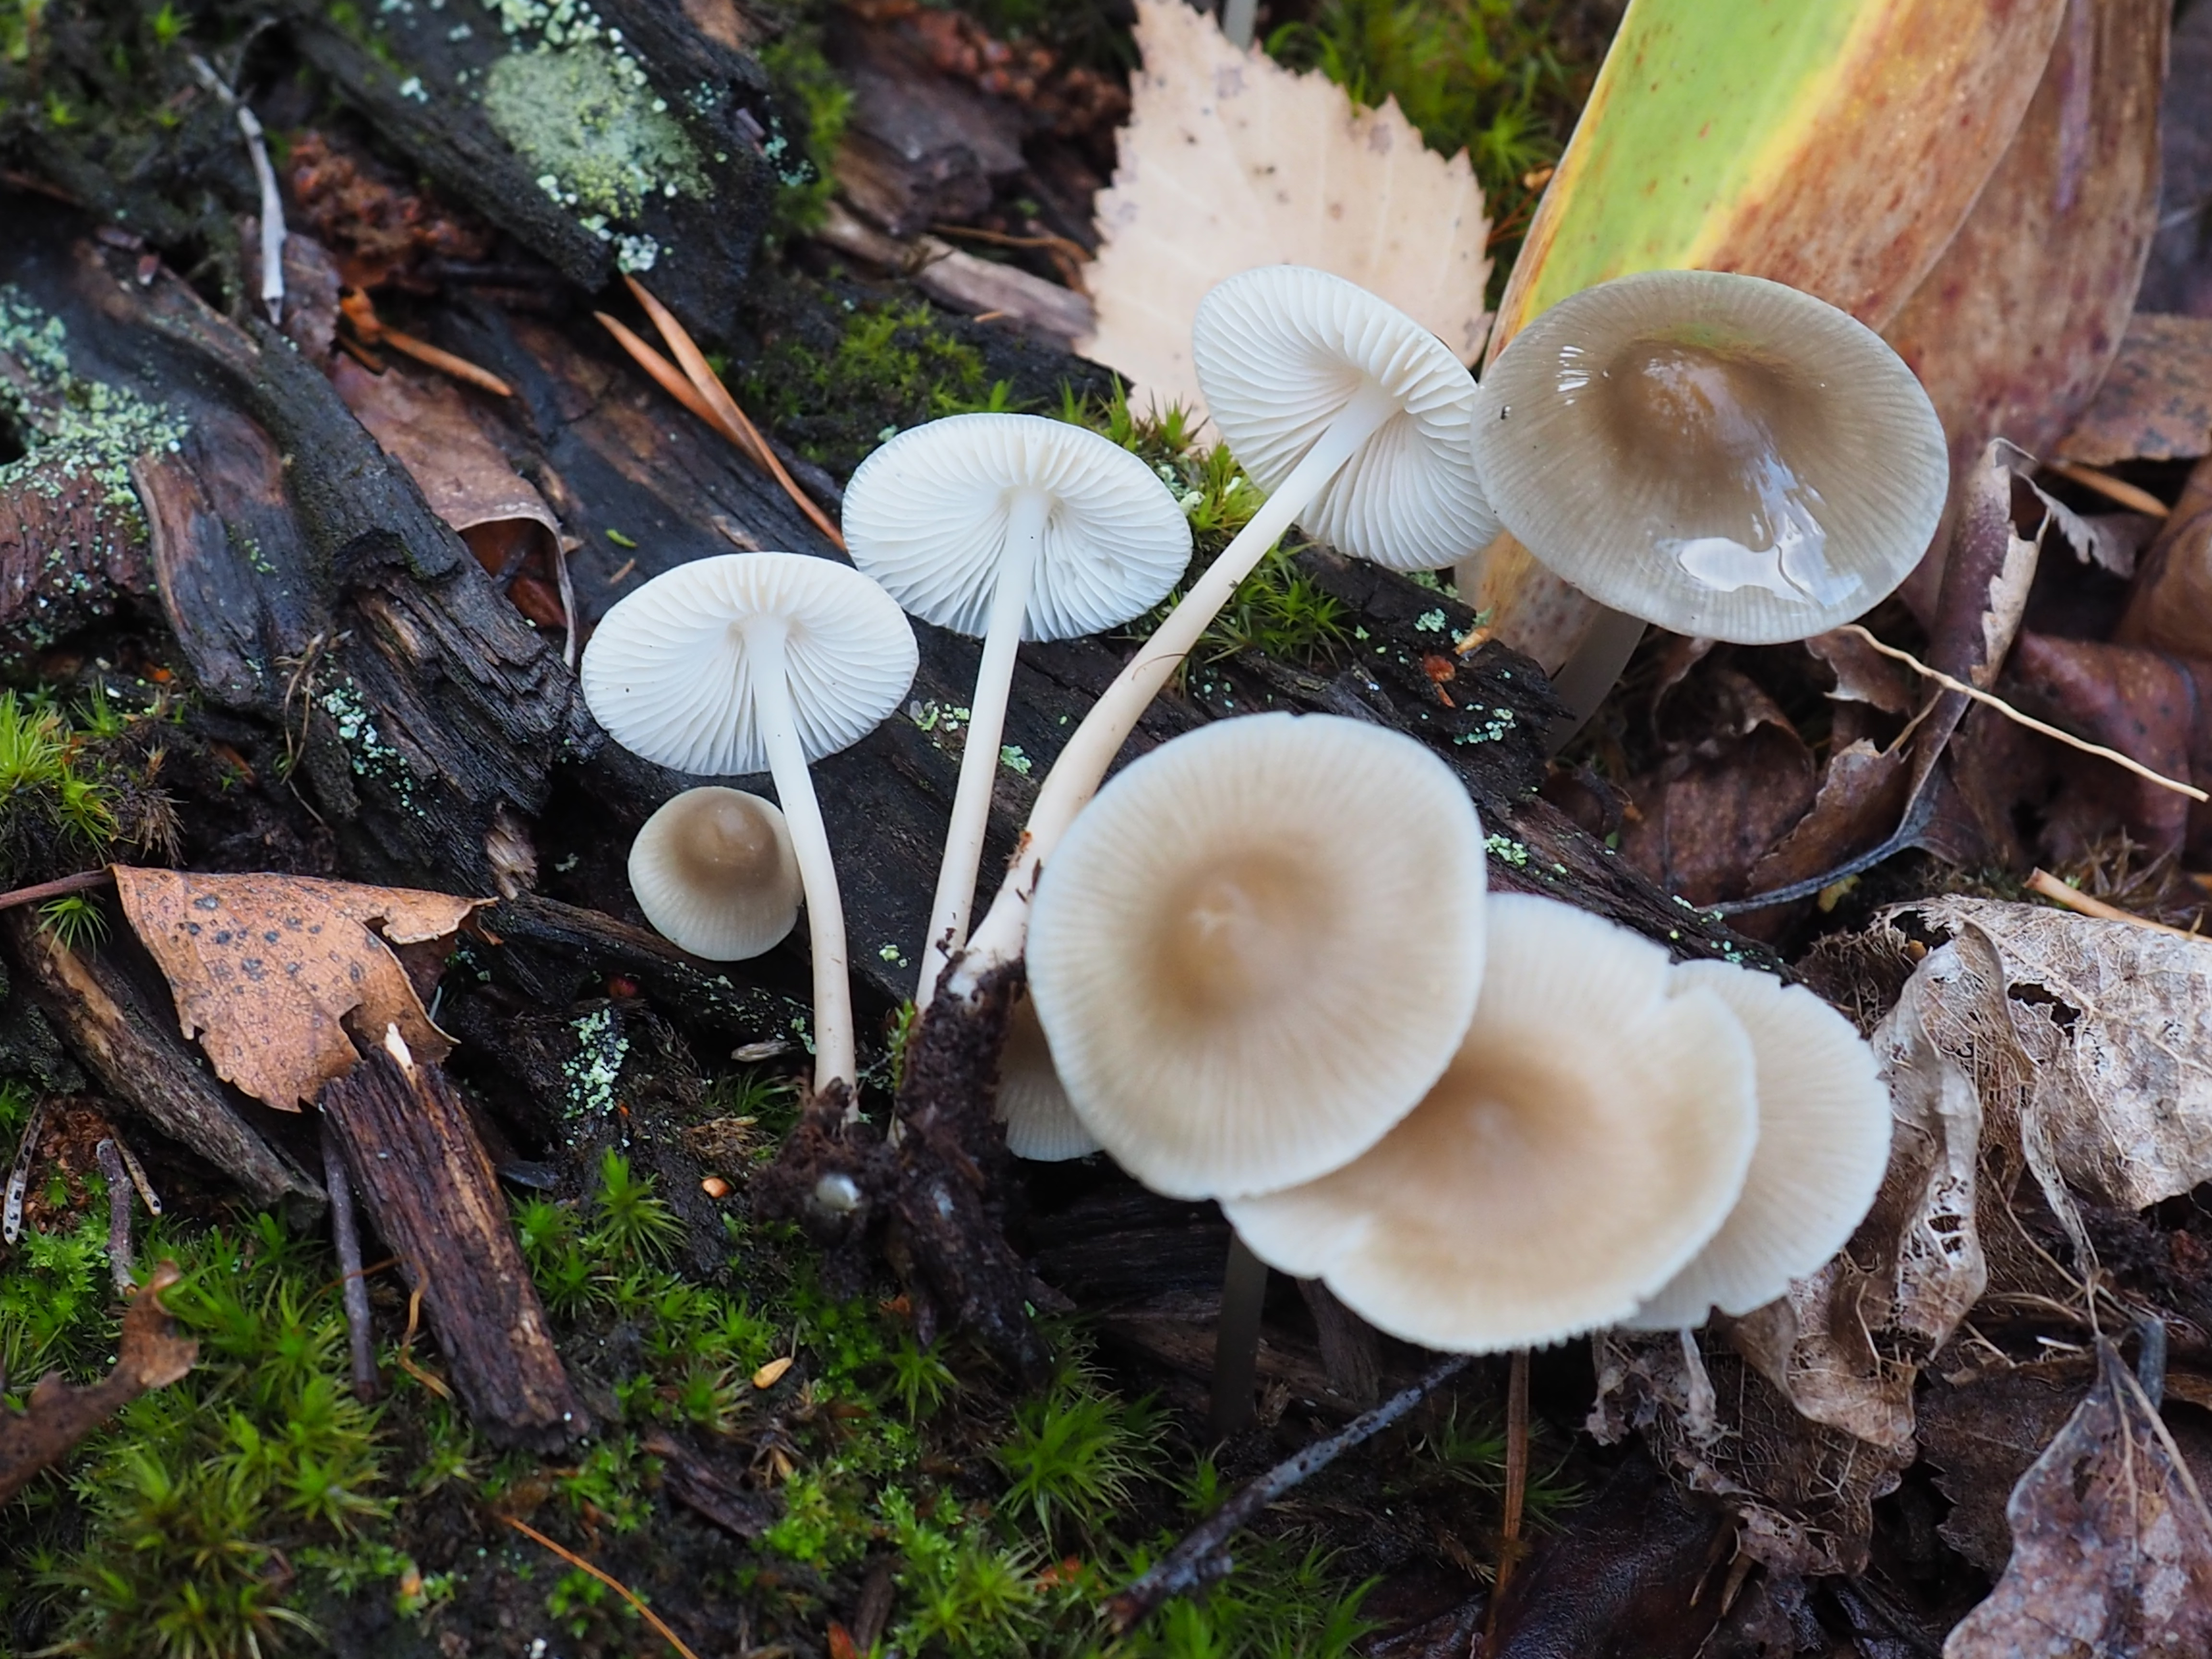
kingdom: Fungi
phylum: Basidiomycota
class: Agaricomycetes
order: Agaricales
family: Mycenaceae
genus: Mycena
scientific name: Mycena galericulata
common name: Bonnet mycena
